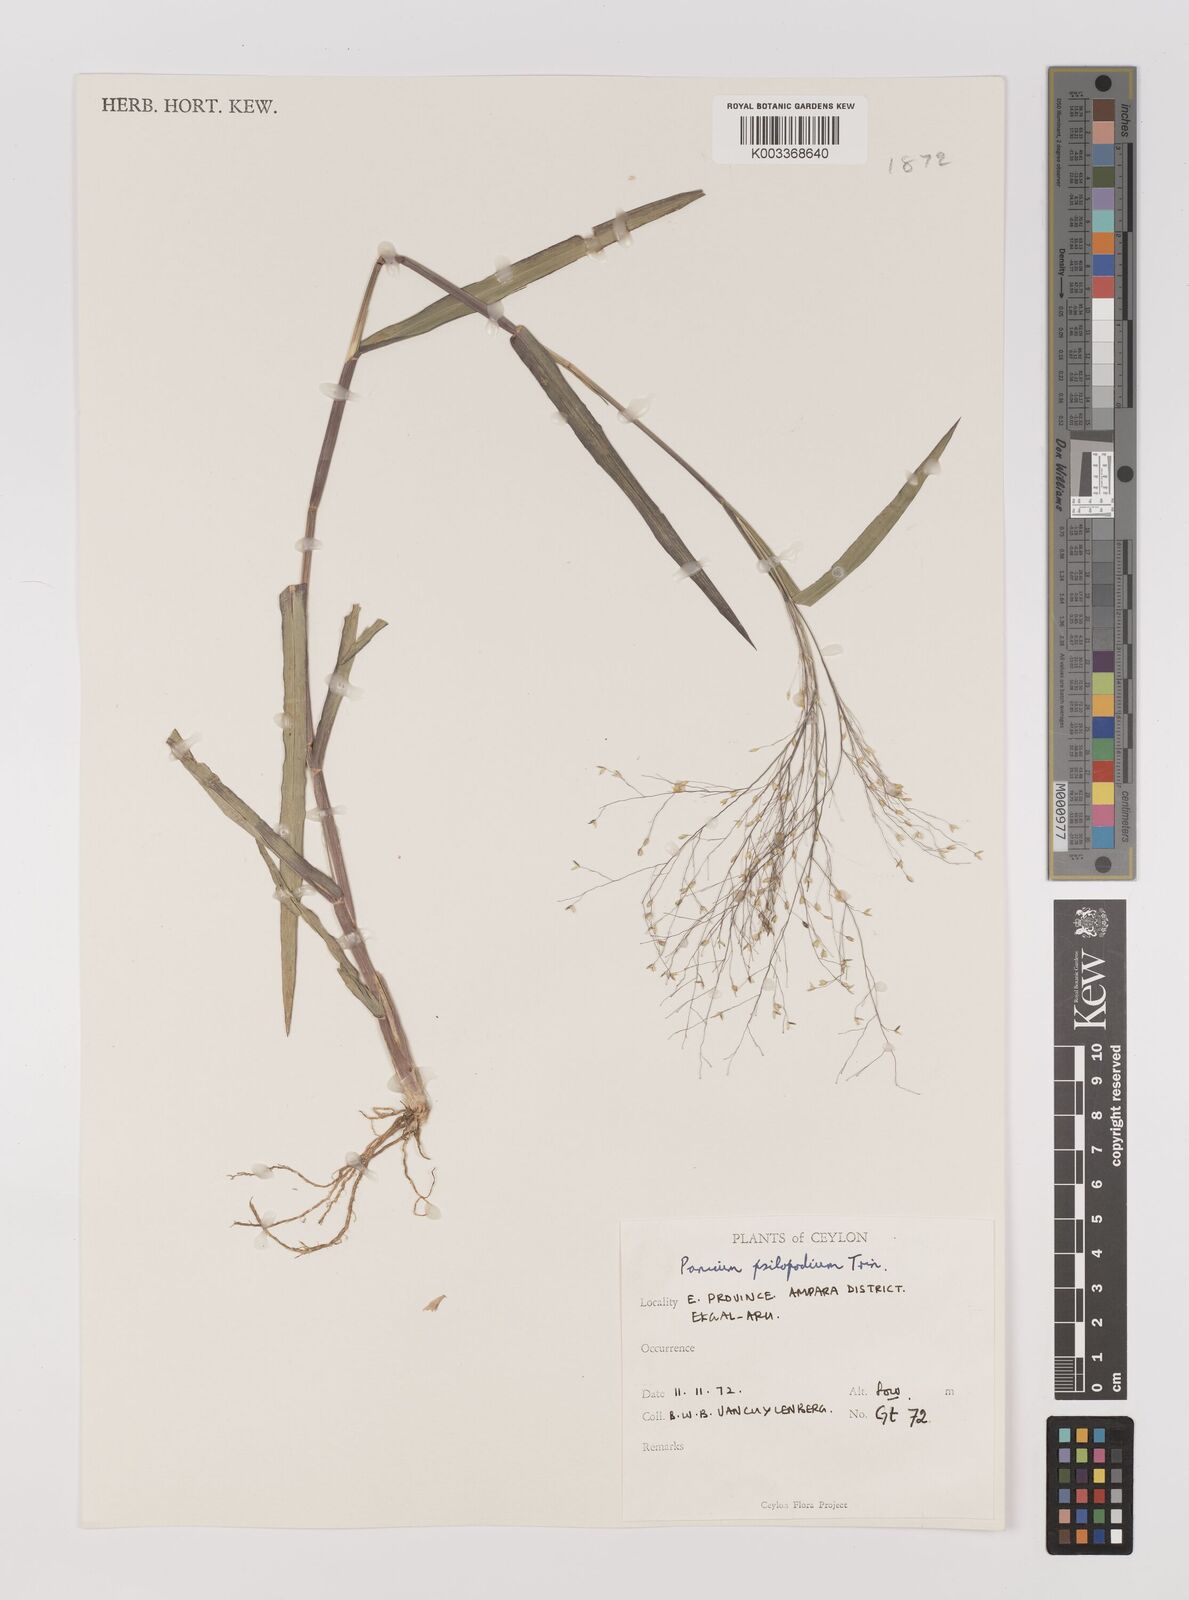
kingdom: Plantae
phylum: Tracheophyta
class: Liliopsida
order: Poales
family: Poaceae
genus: Panicum
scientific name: Panicum sumatrense
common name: Little millet
